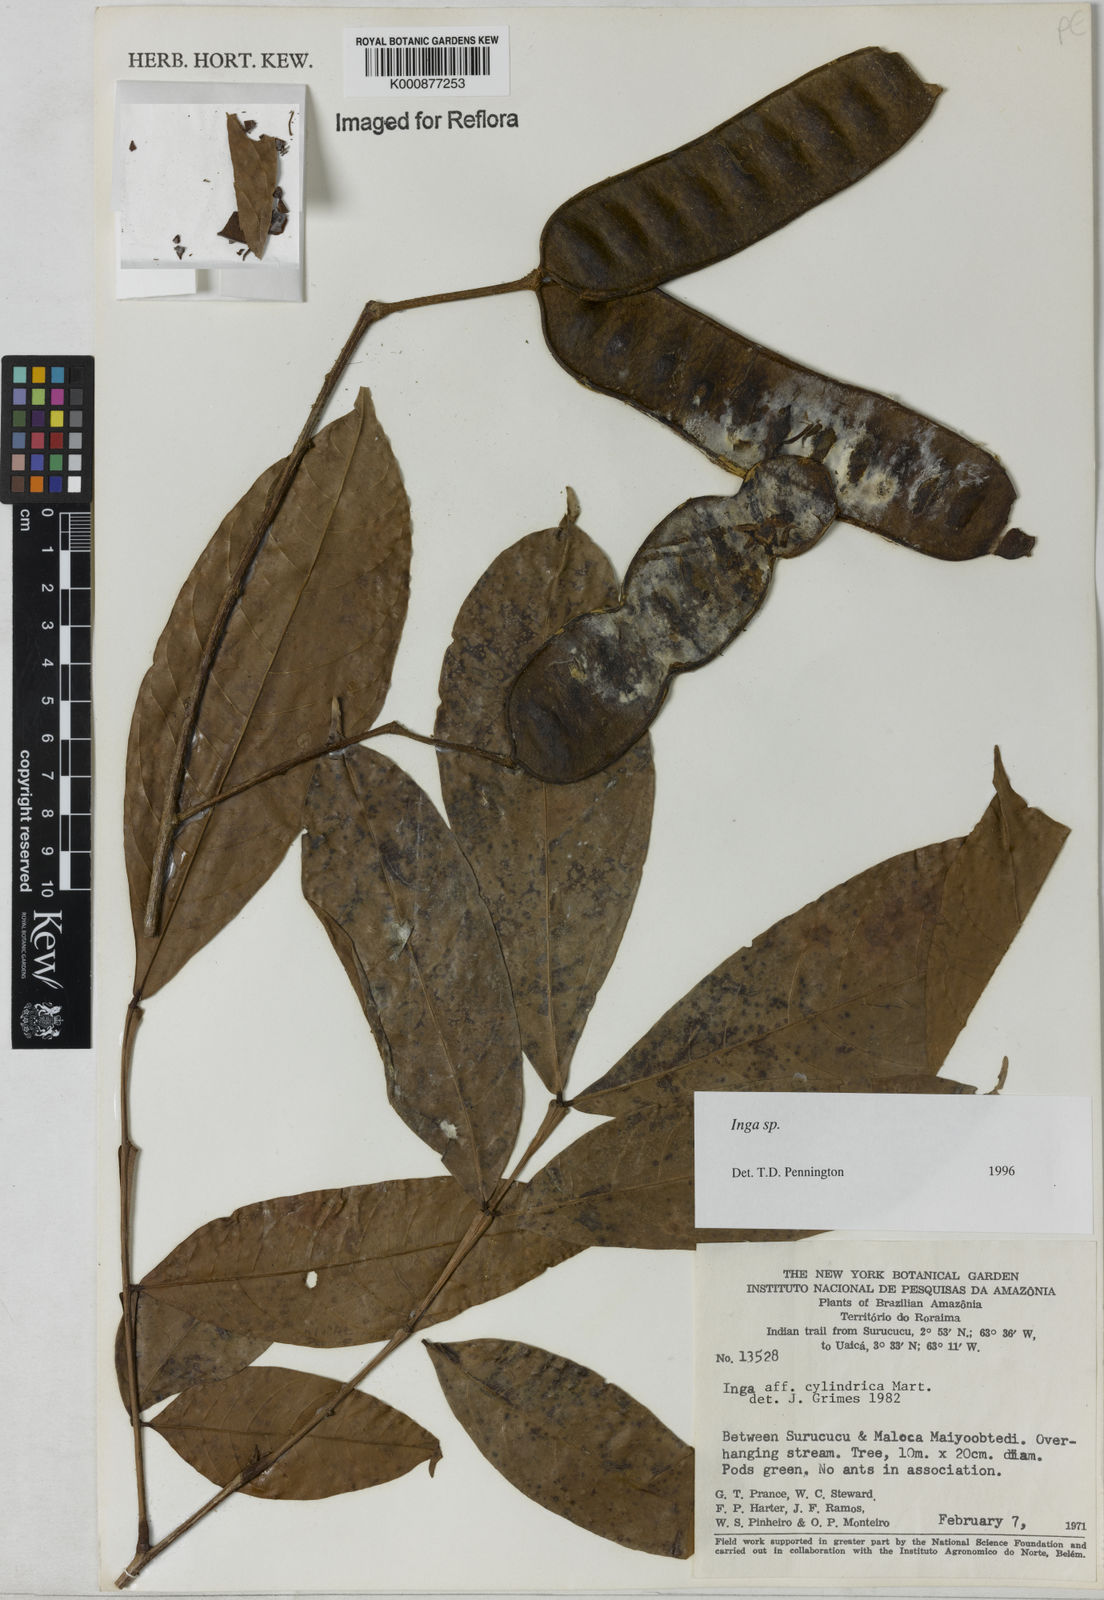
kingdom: Plantae
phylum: Tracheophyta
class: Magnoliopsida
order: Fabales
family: Fabaceae
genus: Inga
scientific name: Inga
